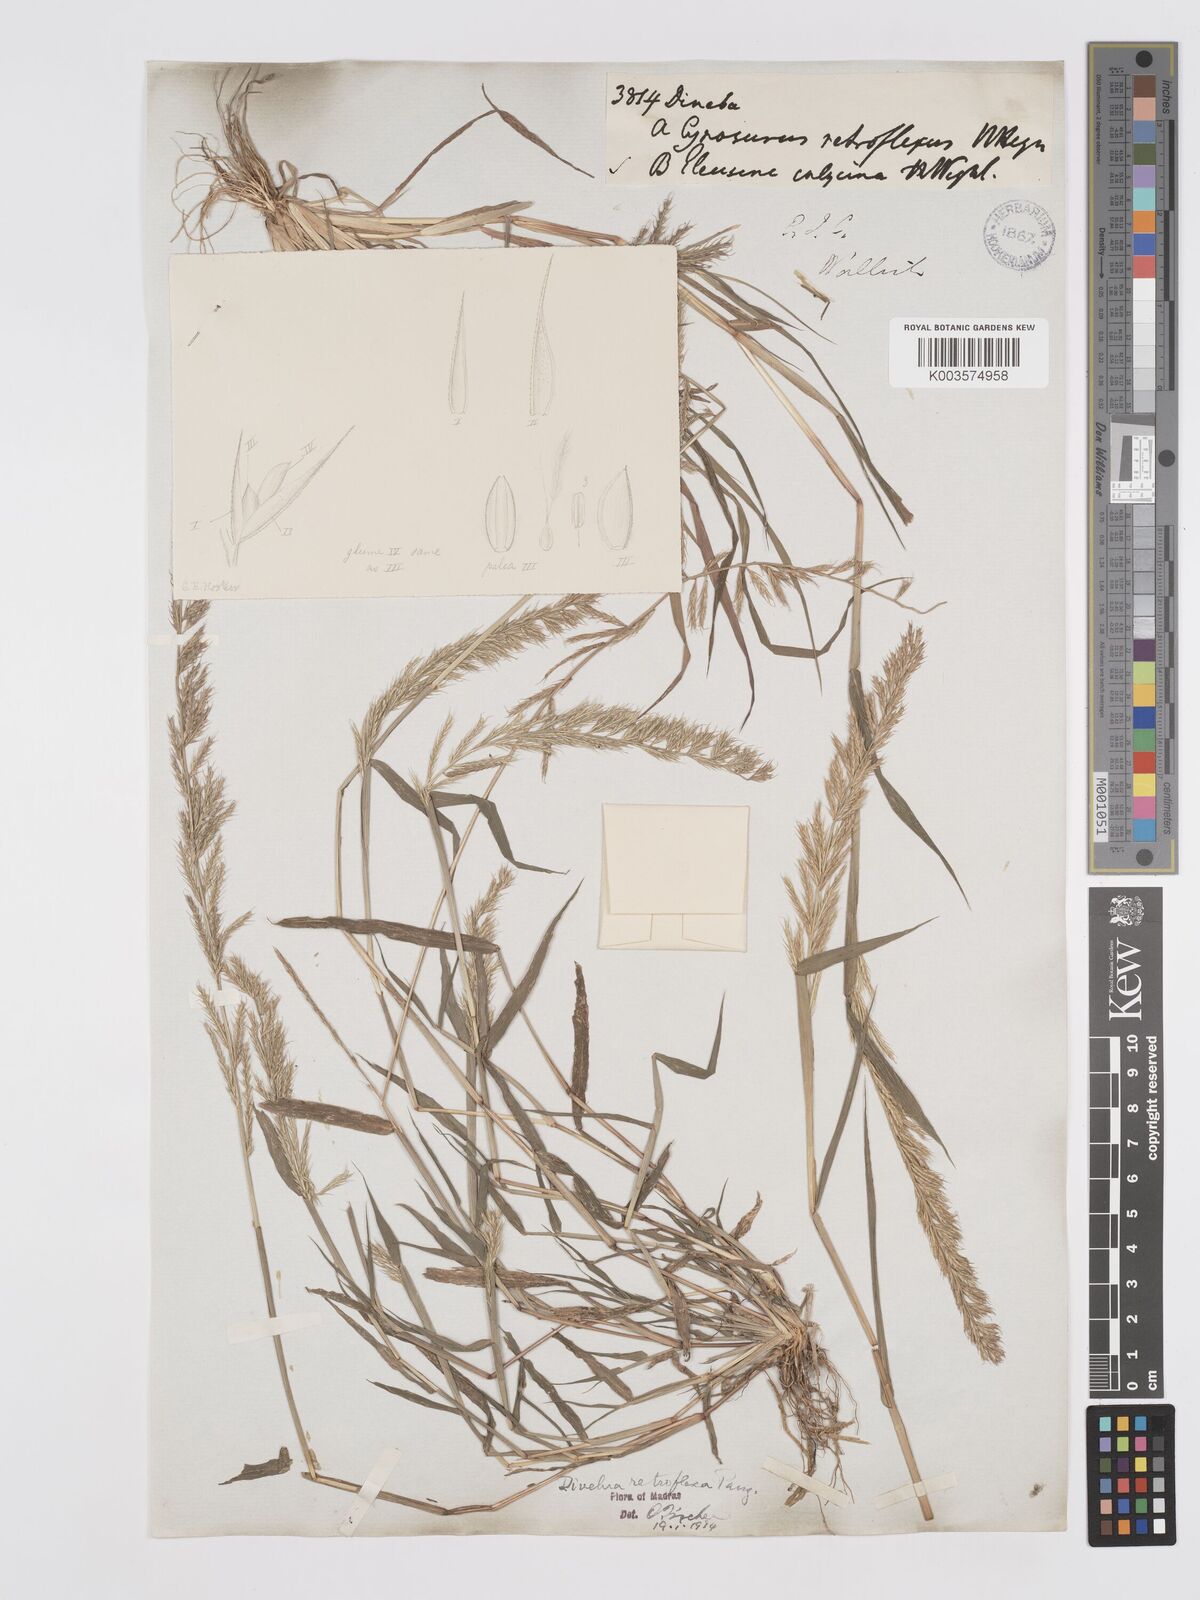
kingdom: Plantae
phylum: Tracheophyta
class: Liliopsida
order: Poales
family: Poaceae
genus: Dinebra
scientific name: Dinebra retroflexa
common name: Viper grass
